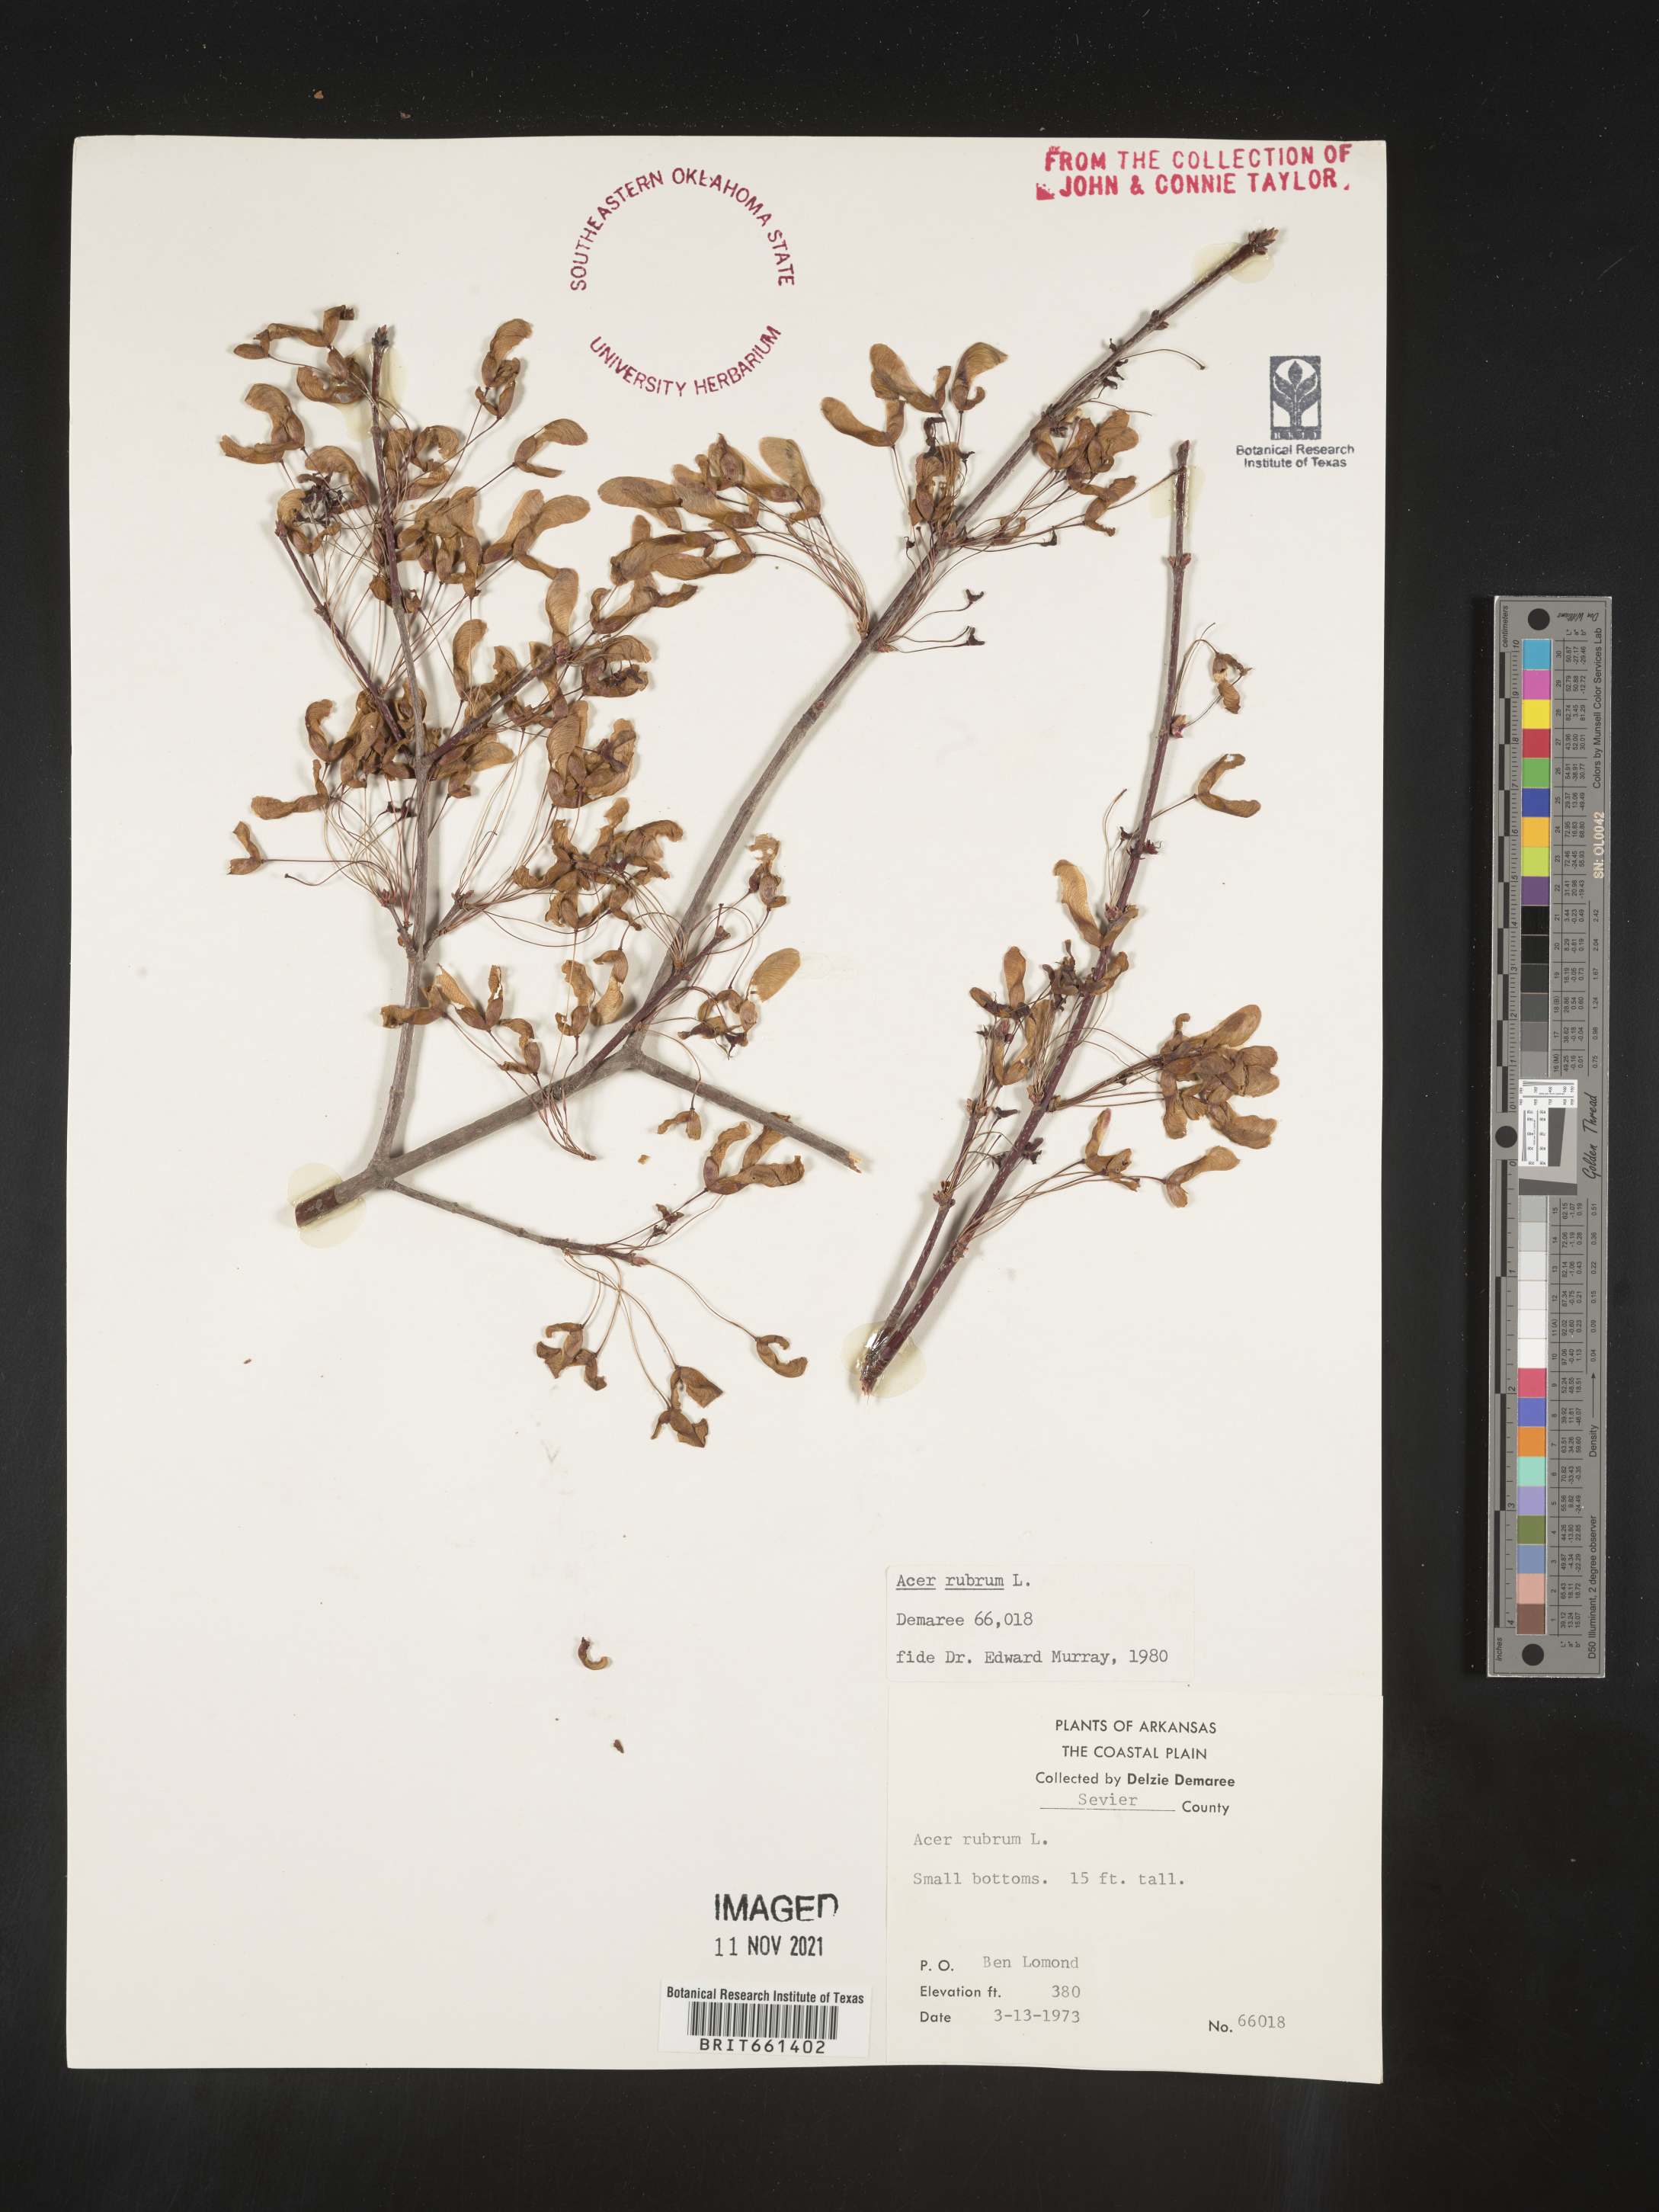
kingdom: Plantae
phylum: Tracheophyta
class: Magnoliopsida
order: Sapindales
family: Sapindaceae
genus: Acer
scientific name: Acer rubrum
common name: Red maple
